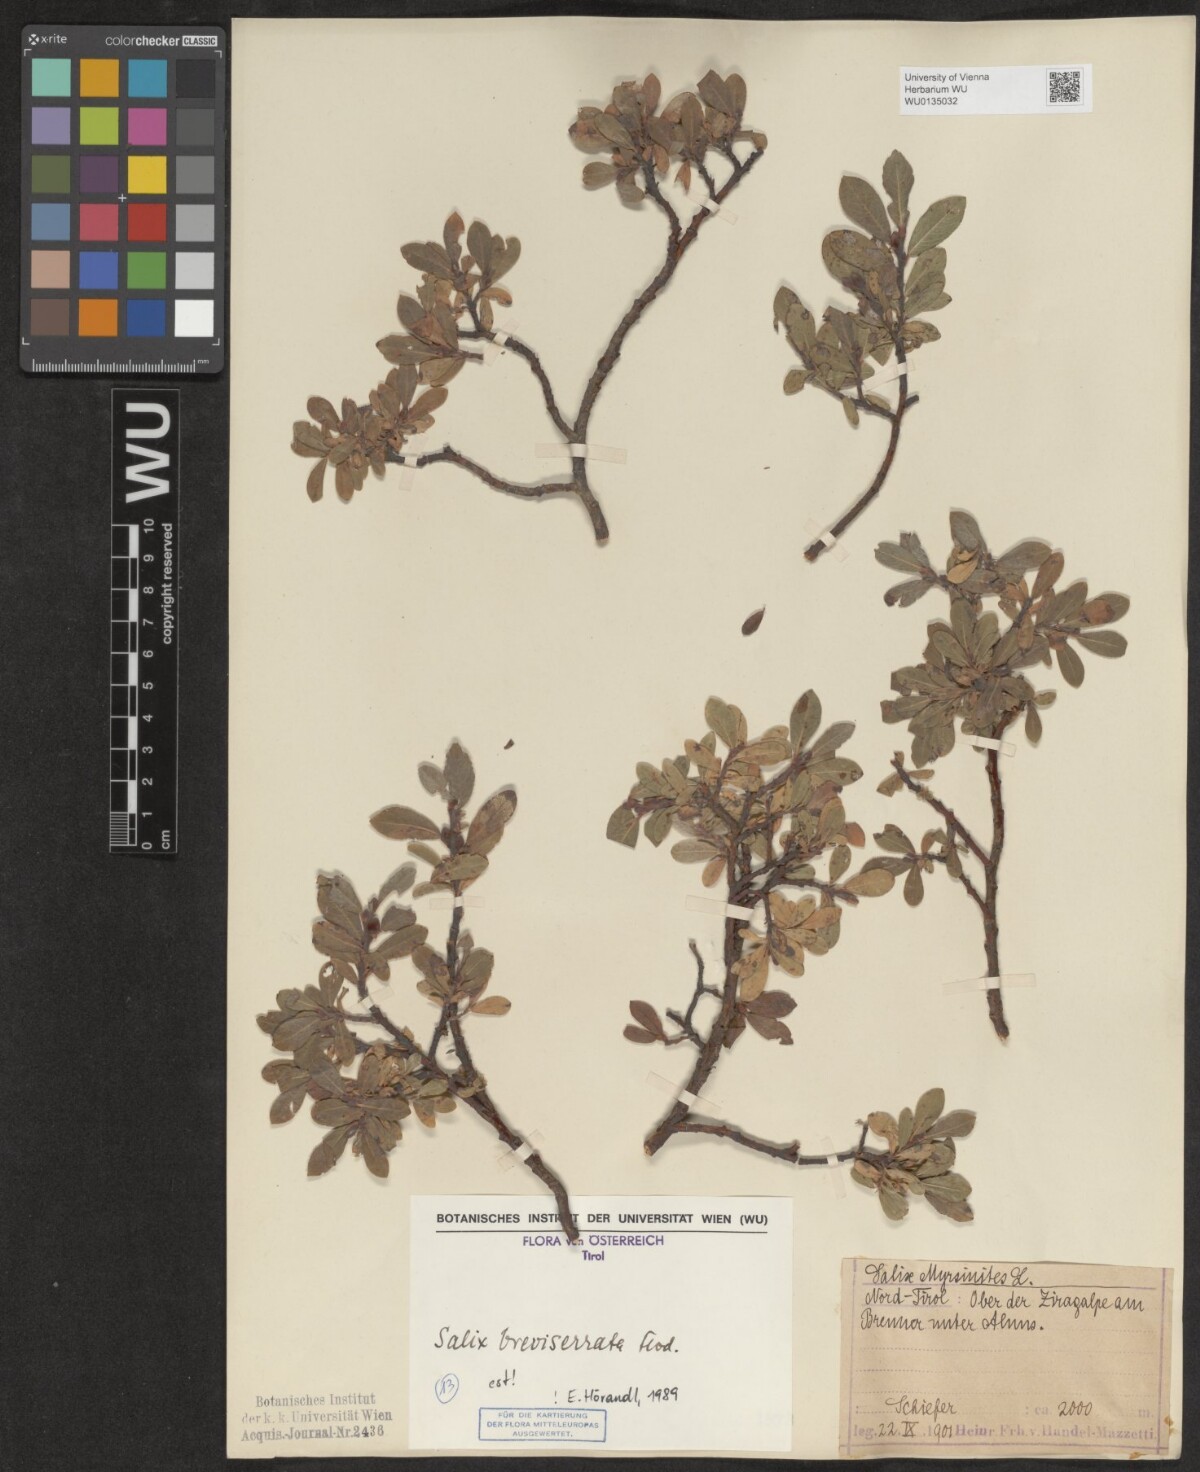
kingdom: Plantae
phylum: Tracheophyta
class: Magnoliopsida
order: Malpighiales
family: Salicaceae
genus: Salix
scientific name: Salix breviserrata
